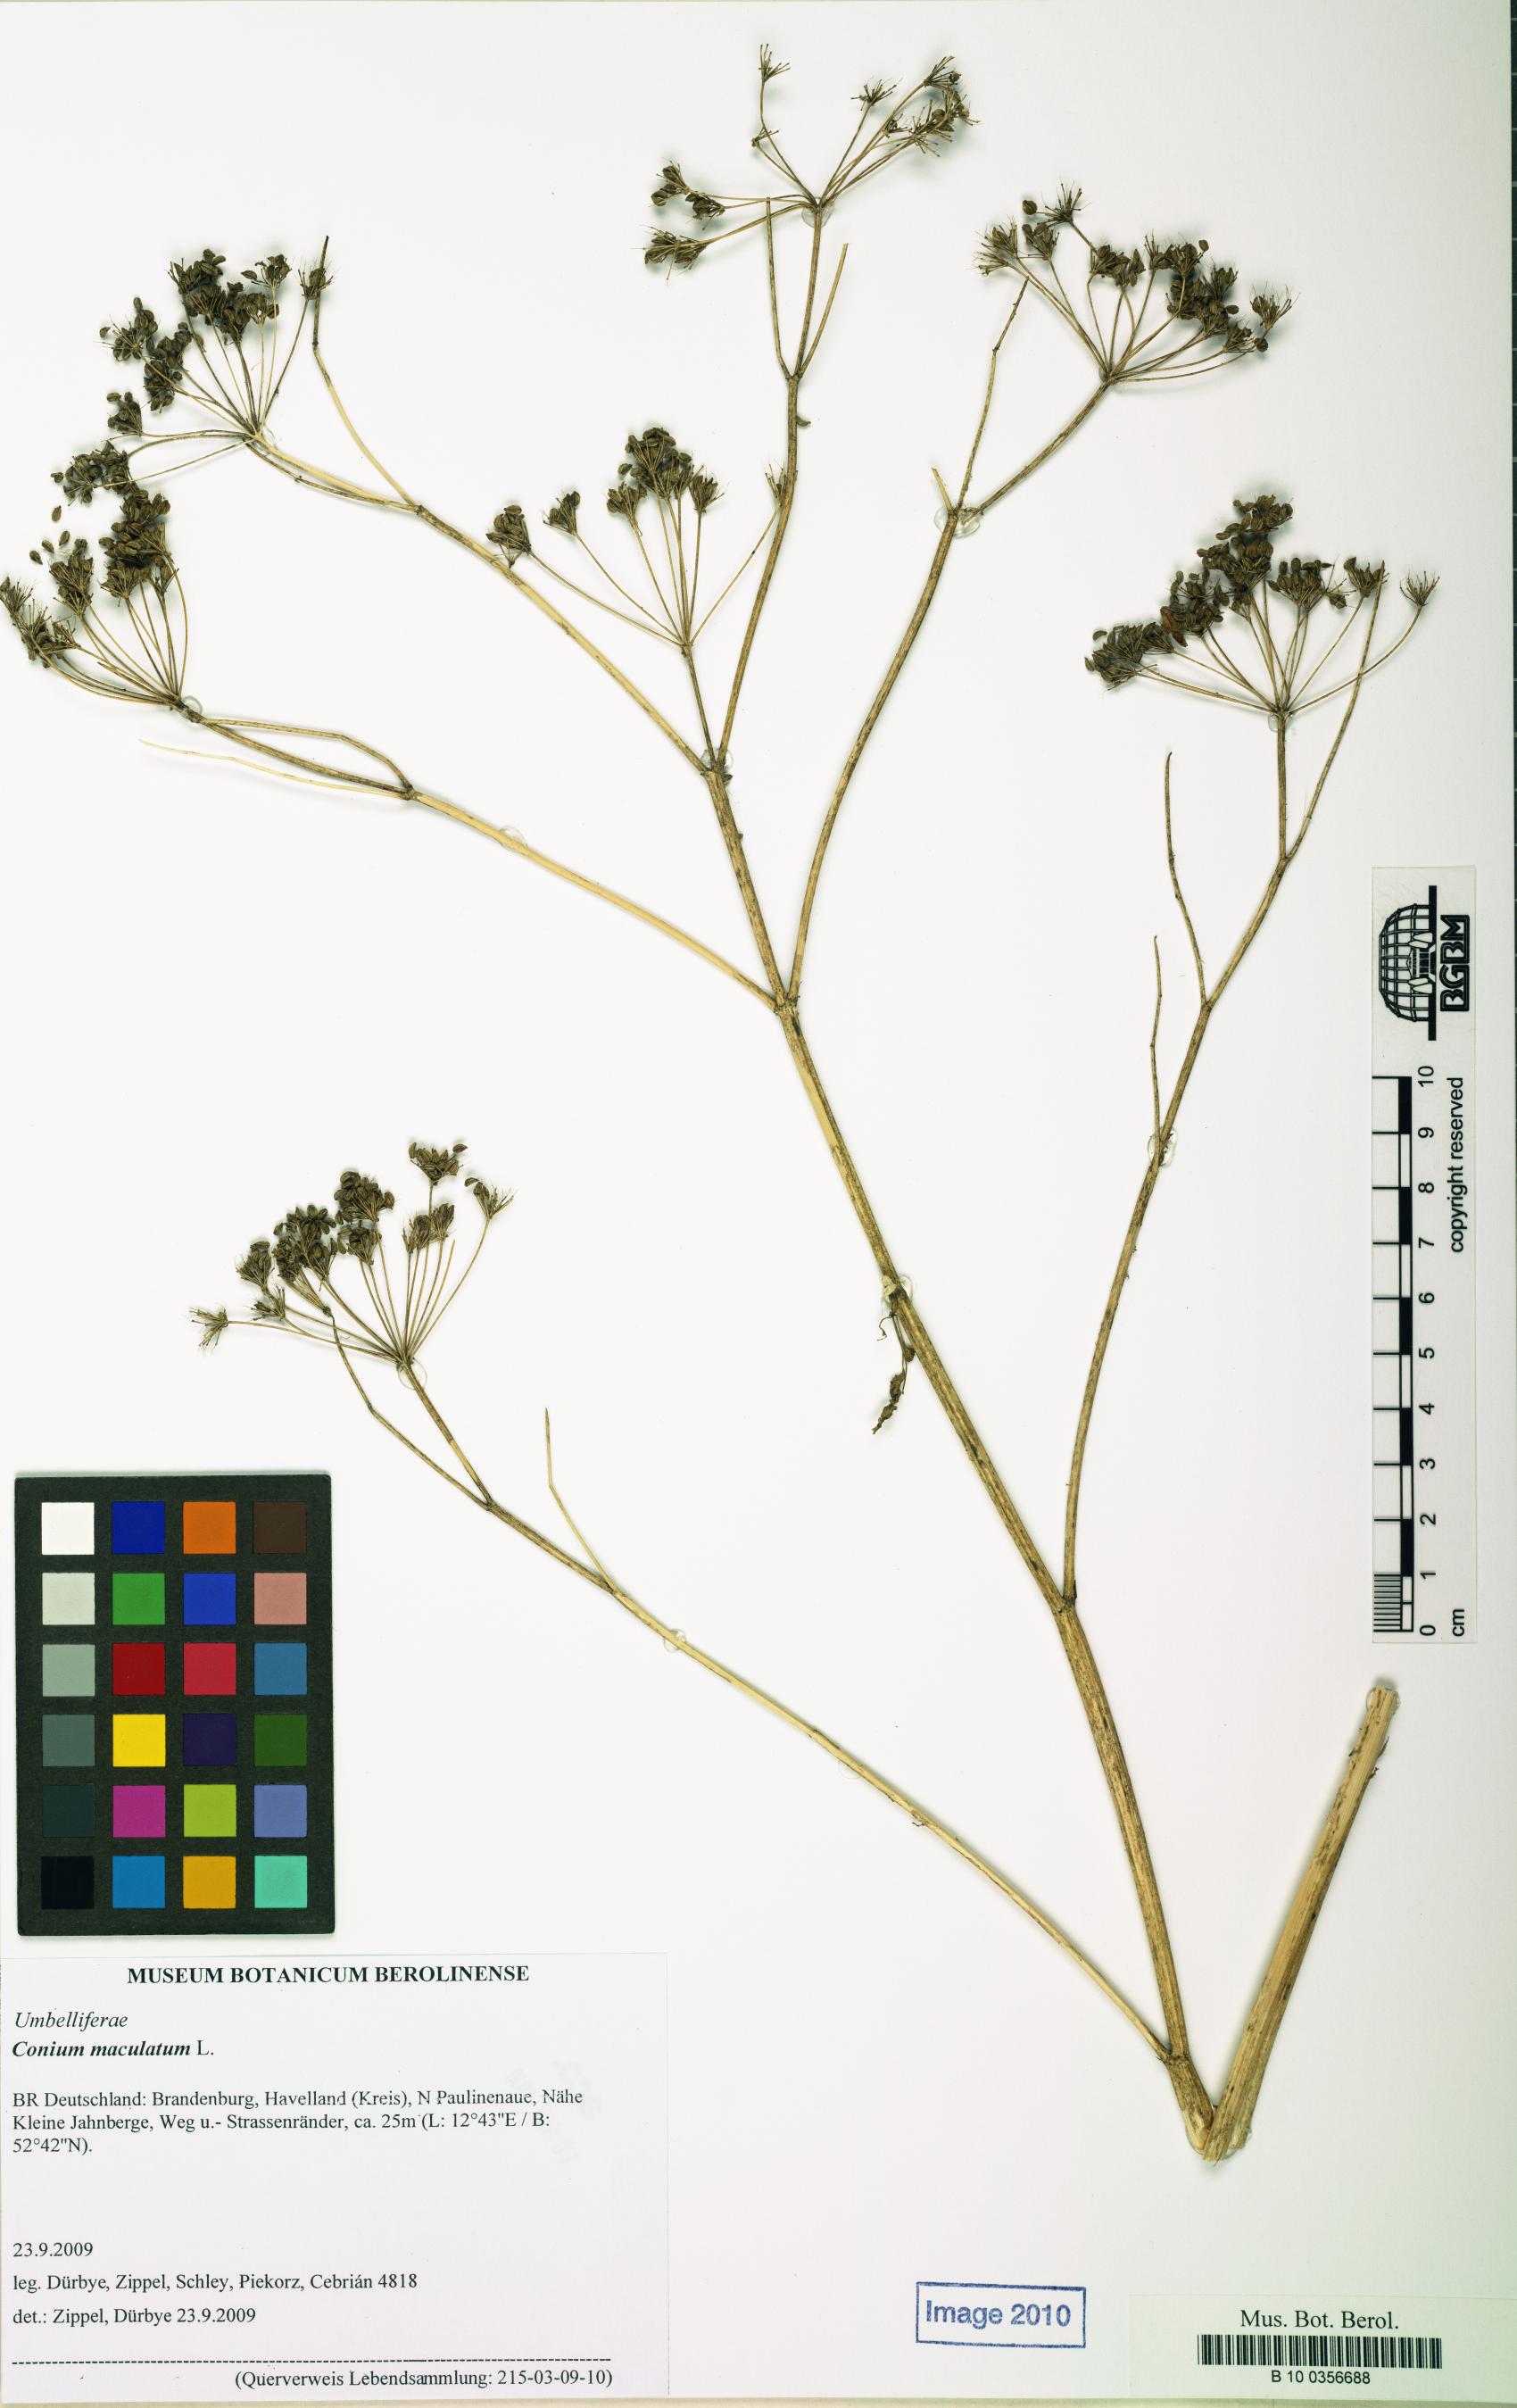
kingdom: Plantae
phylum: Tracheophyta
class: Magnoliopsida
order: Apiales
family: Apiaceae
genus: Conium
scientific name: Conium maculatum
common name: Hemlock
